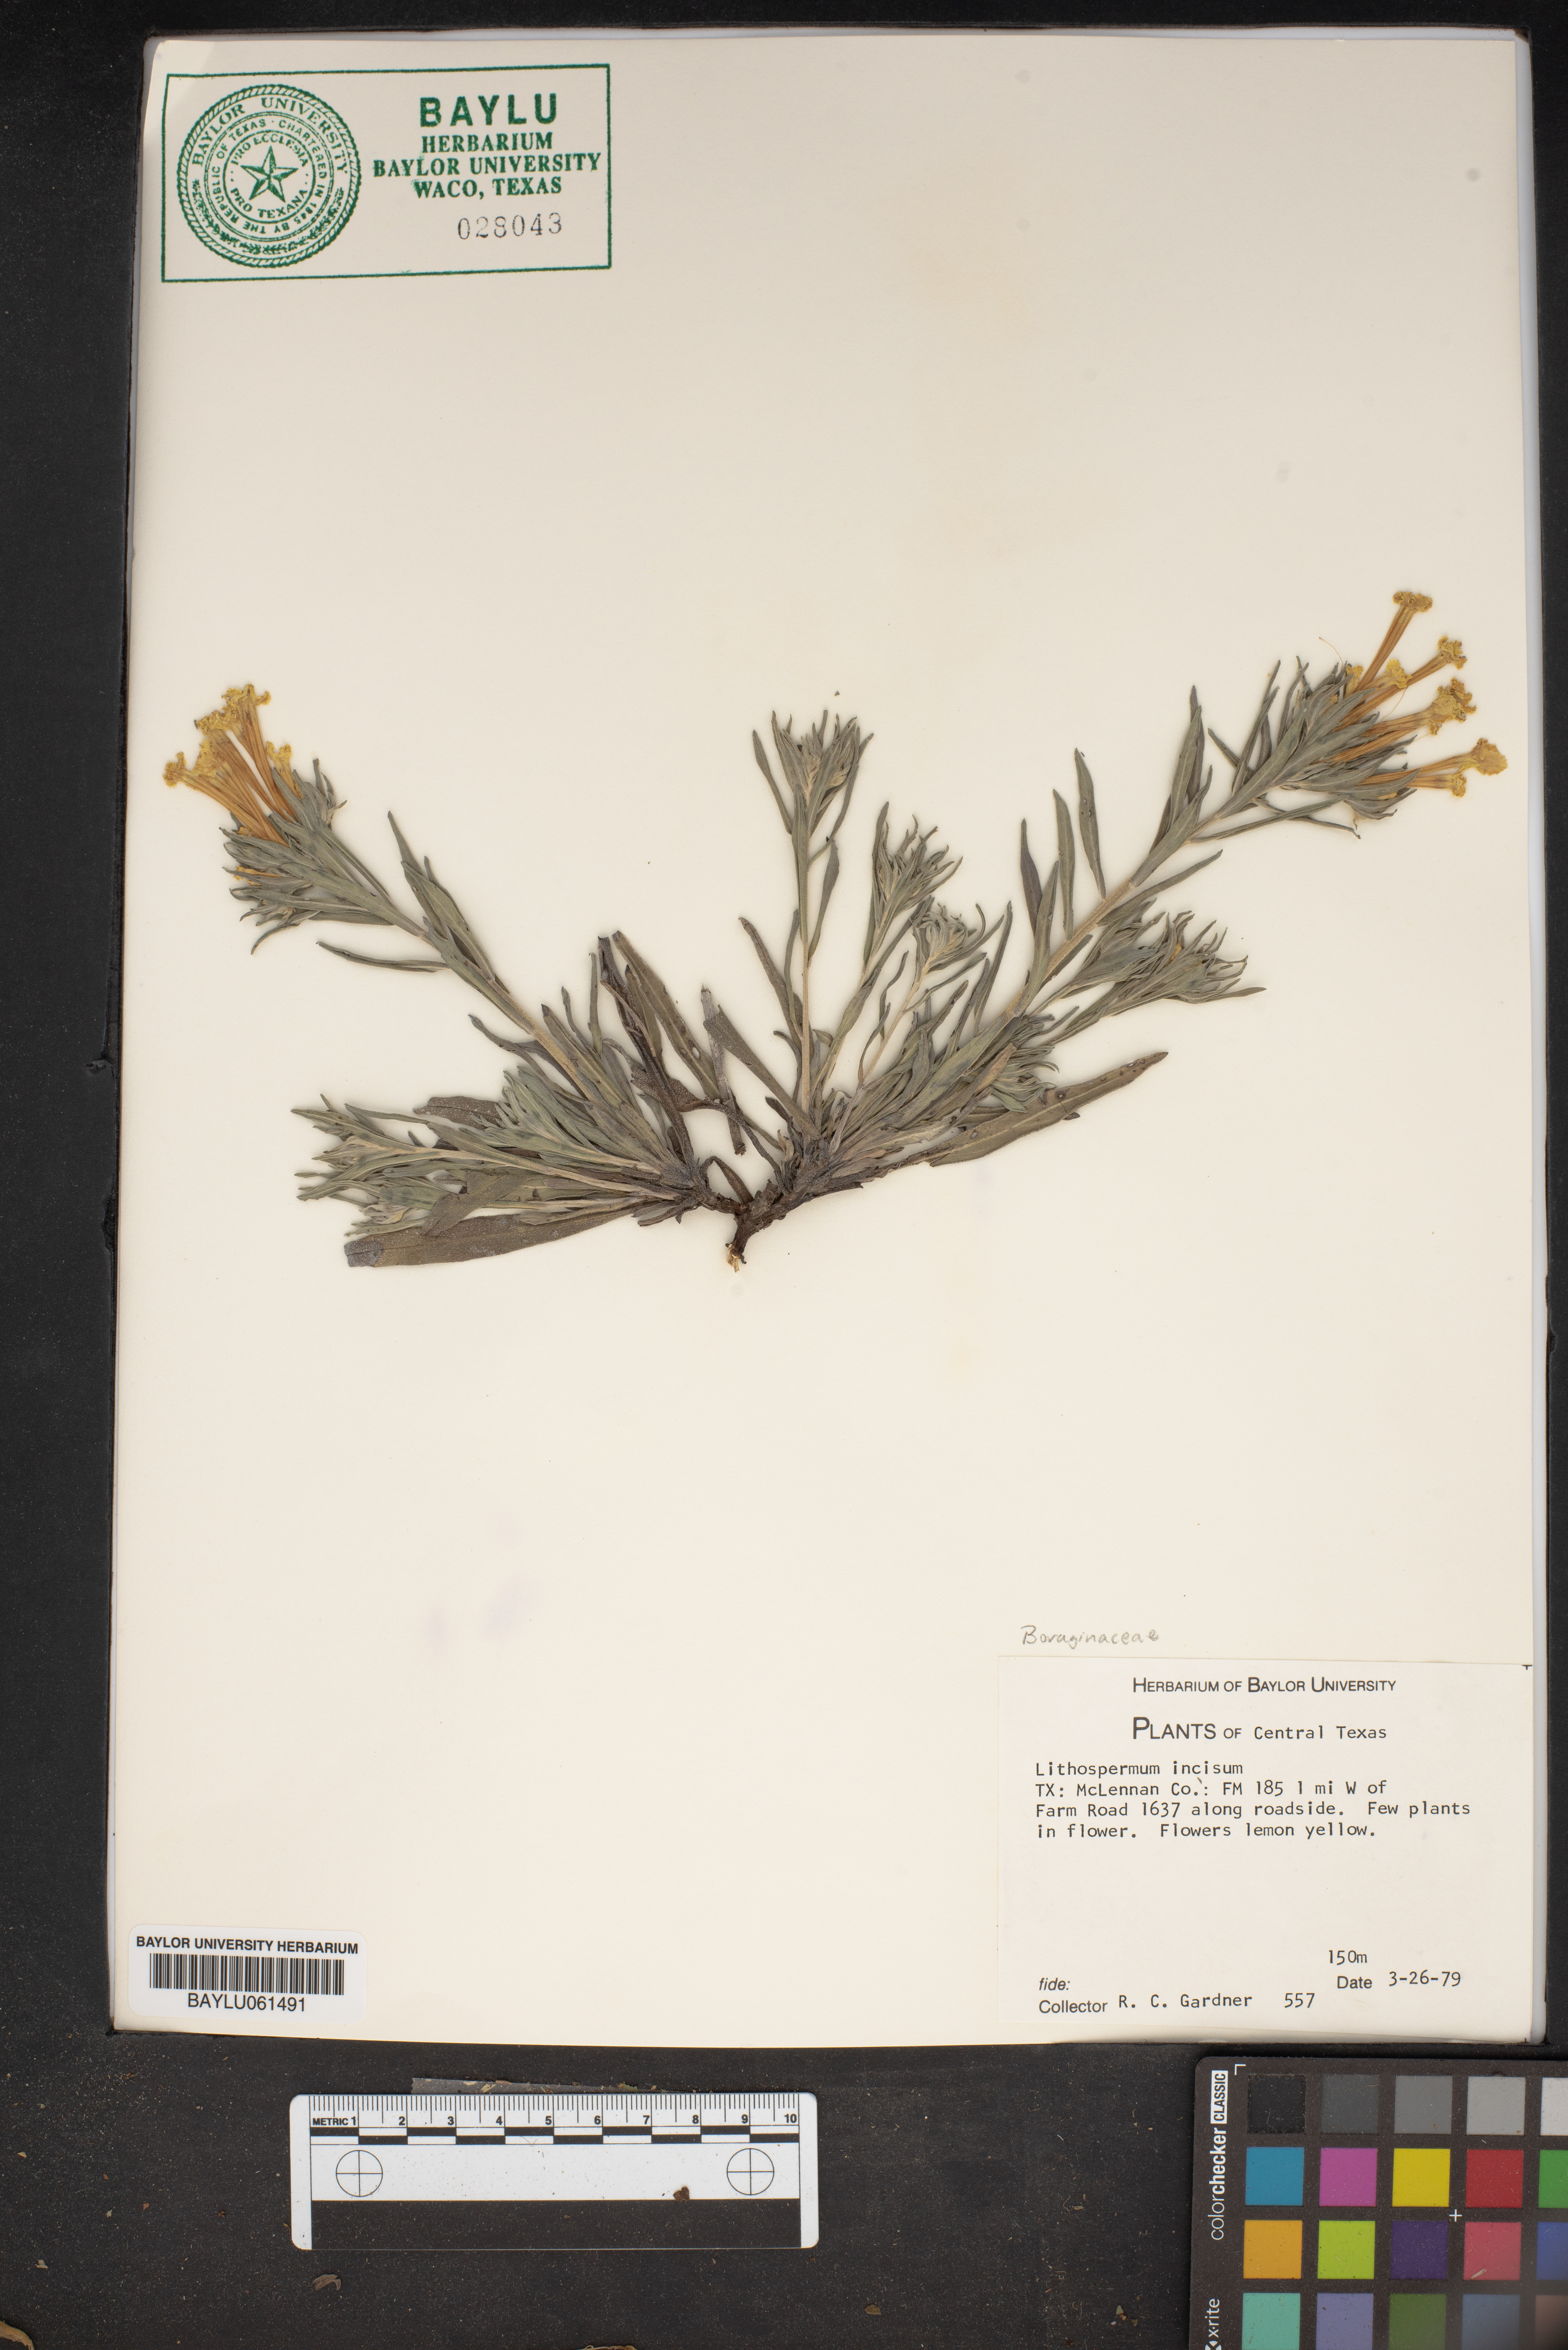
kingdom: Plantae
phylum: Tracheophyta
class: Magnoliopsida
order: Boraginales
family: Boraginaceae
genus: Lithospermum
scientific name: Lithospermum incisum
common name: Fringed gromwell
